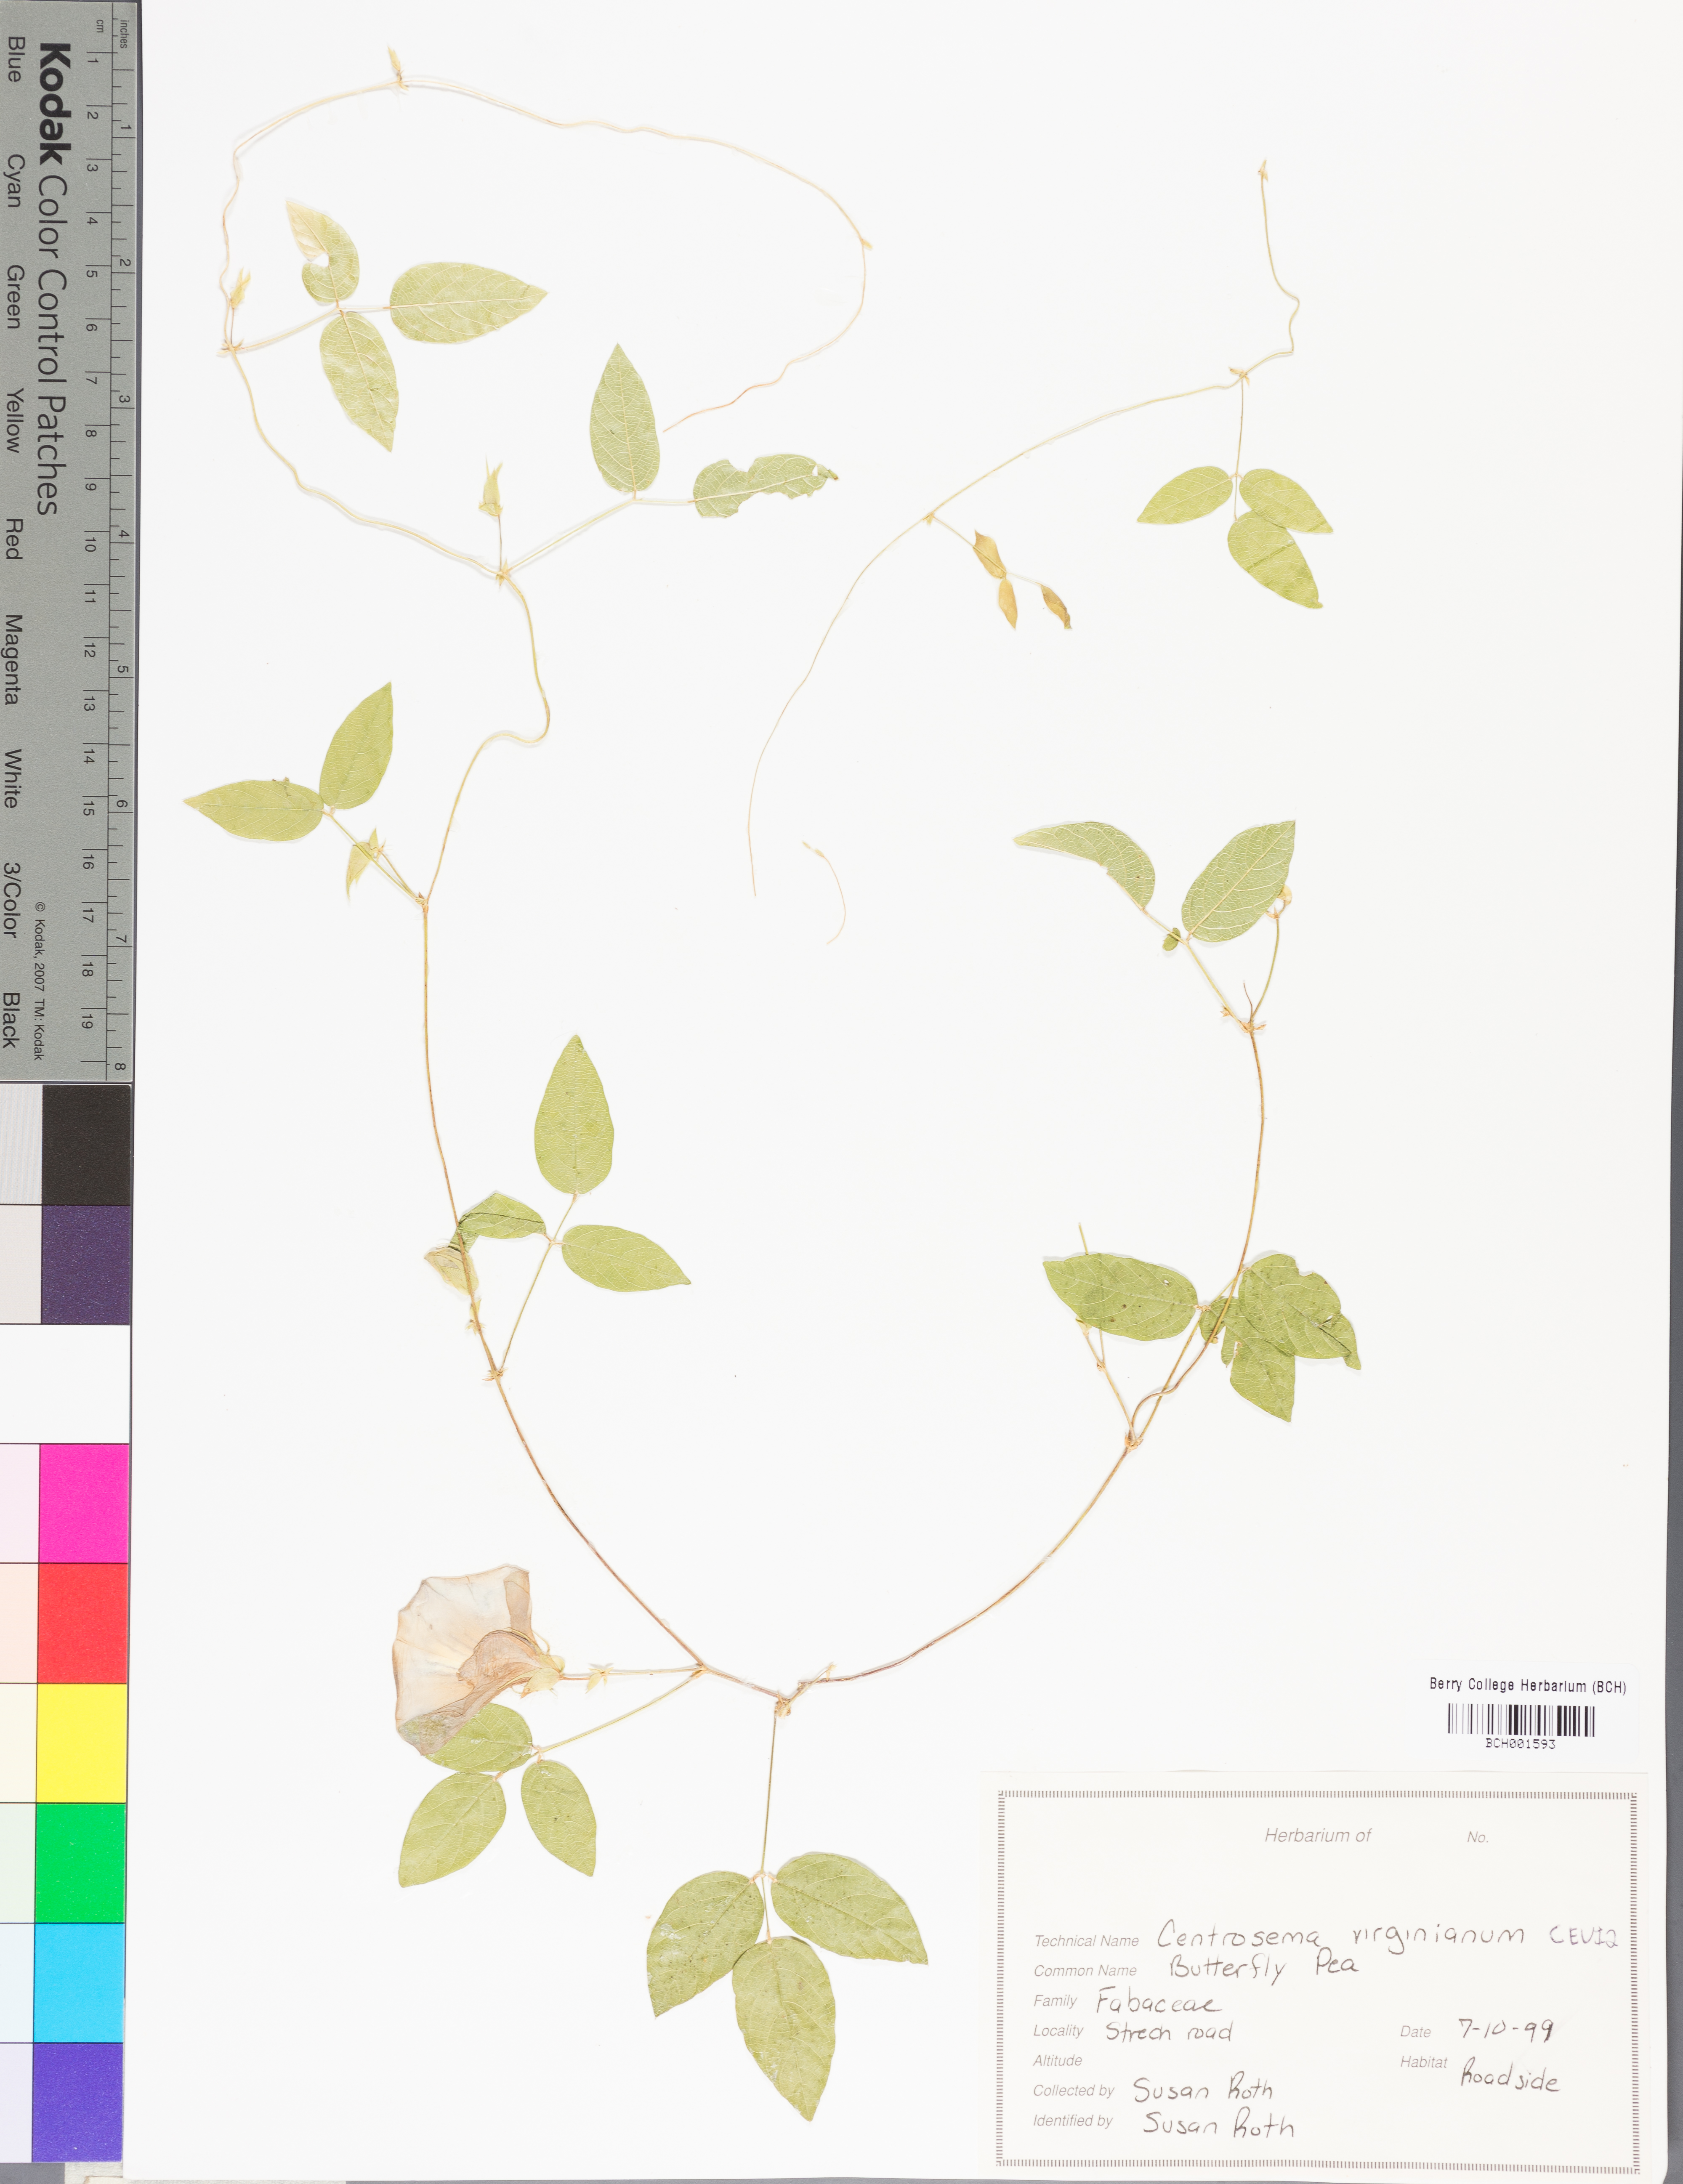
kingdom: Plantae
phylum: Tracheophyta
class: Magnoliopsida
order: Fabales
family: Fabaceae
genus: Centrosema
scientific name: Centrosema virginianum
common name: Butterfly-pea
